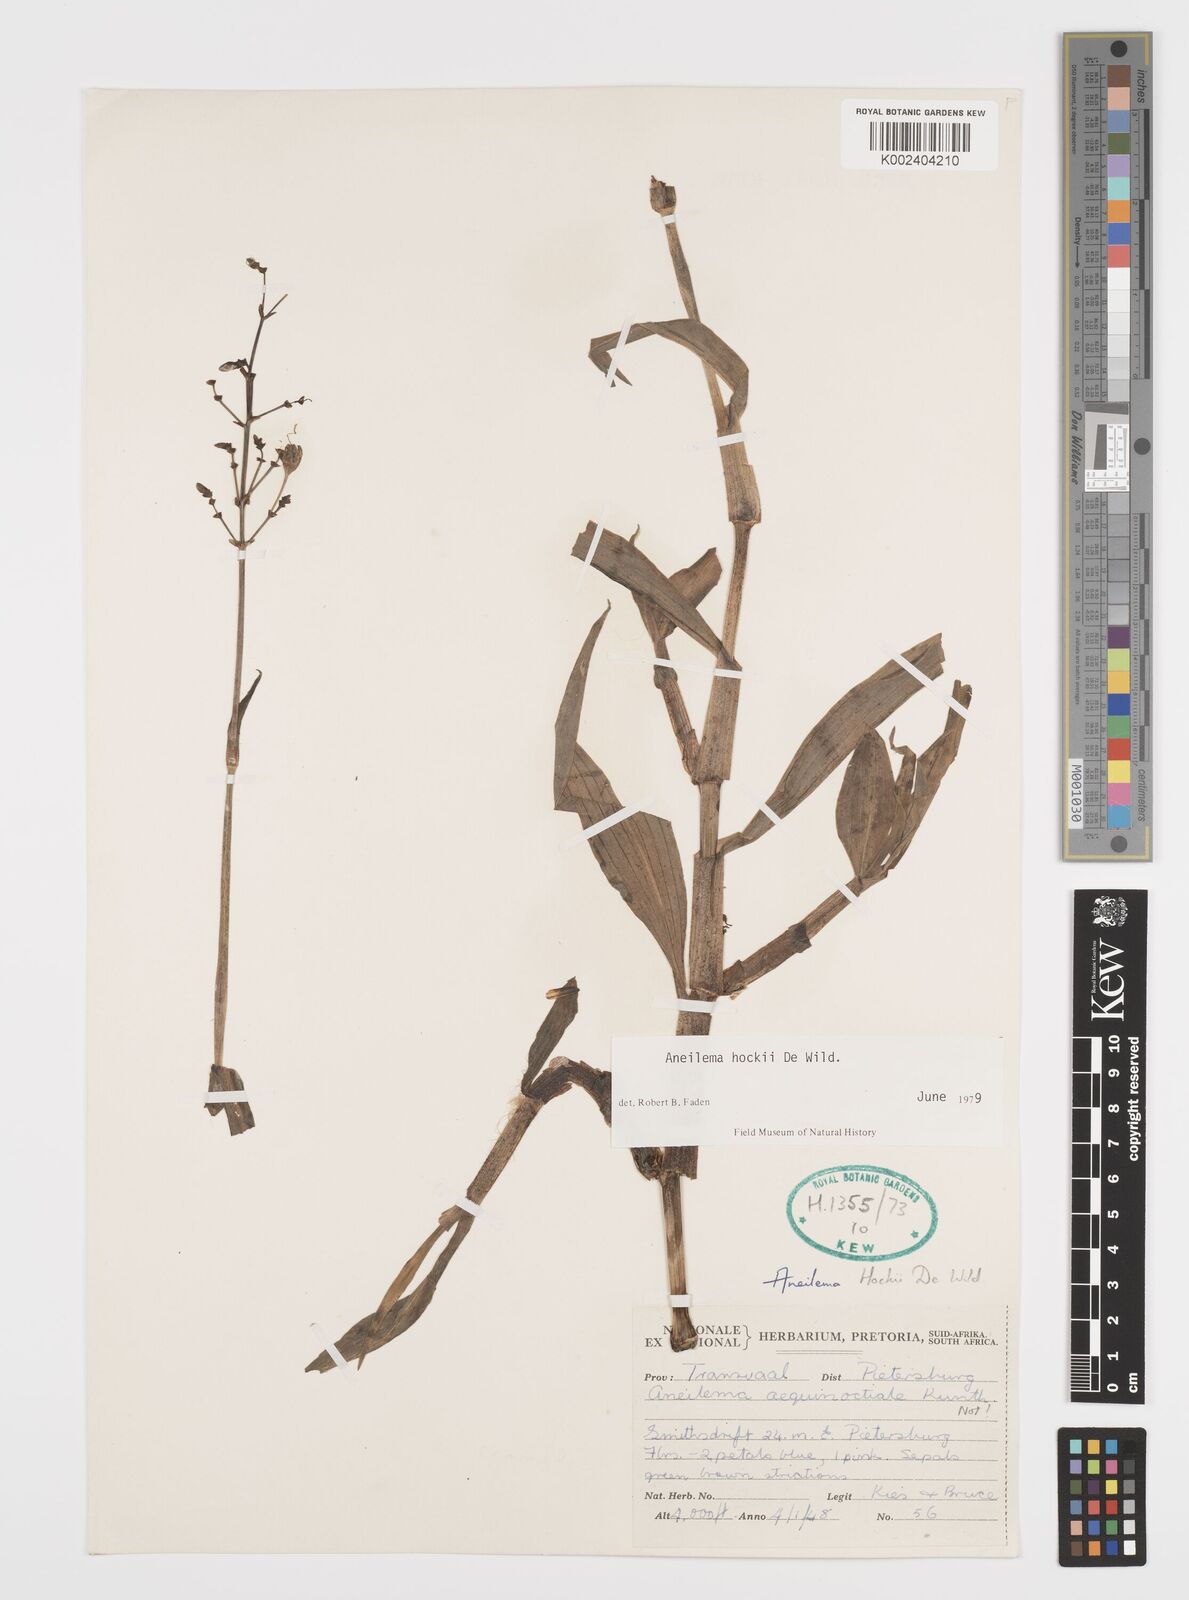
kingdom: Plantae
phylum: Tracheophyta
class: Liliopsida
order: Commelinales
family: Commelinaceae
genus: Aneilema
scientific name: Aneilema hockii
